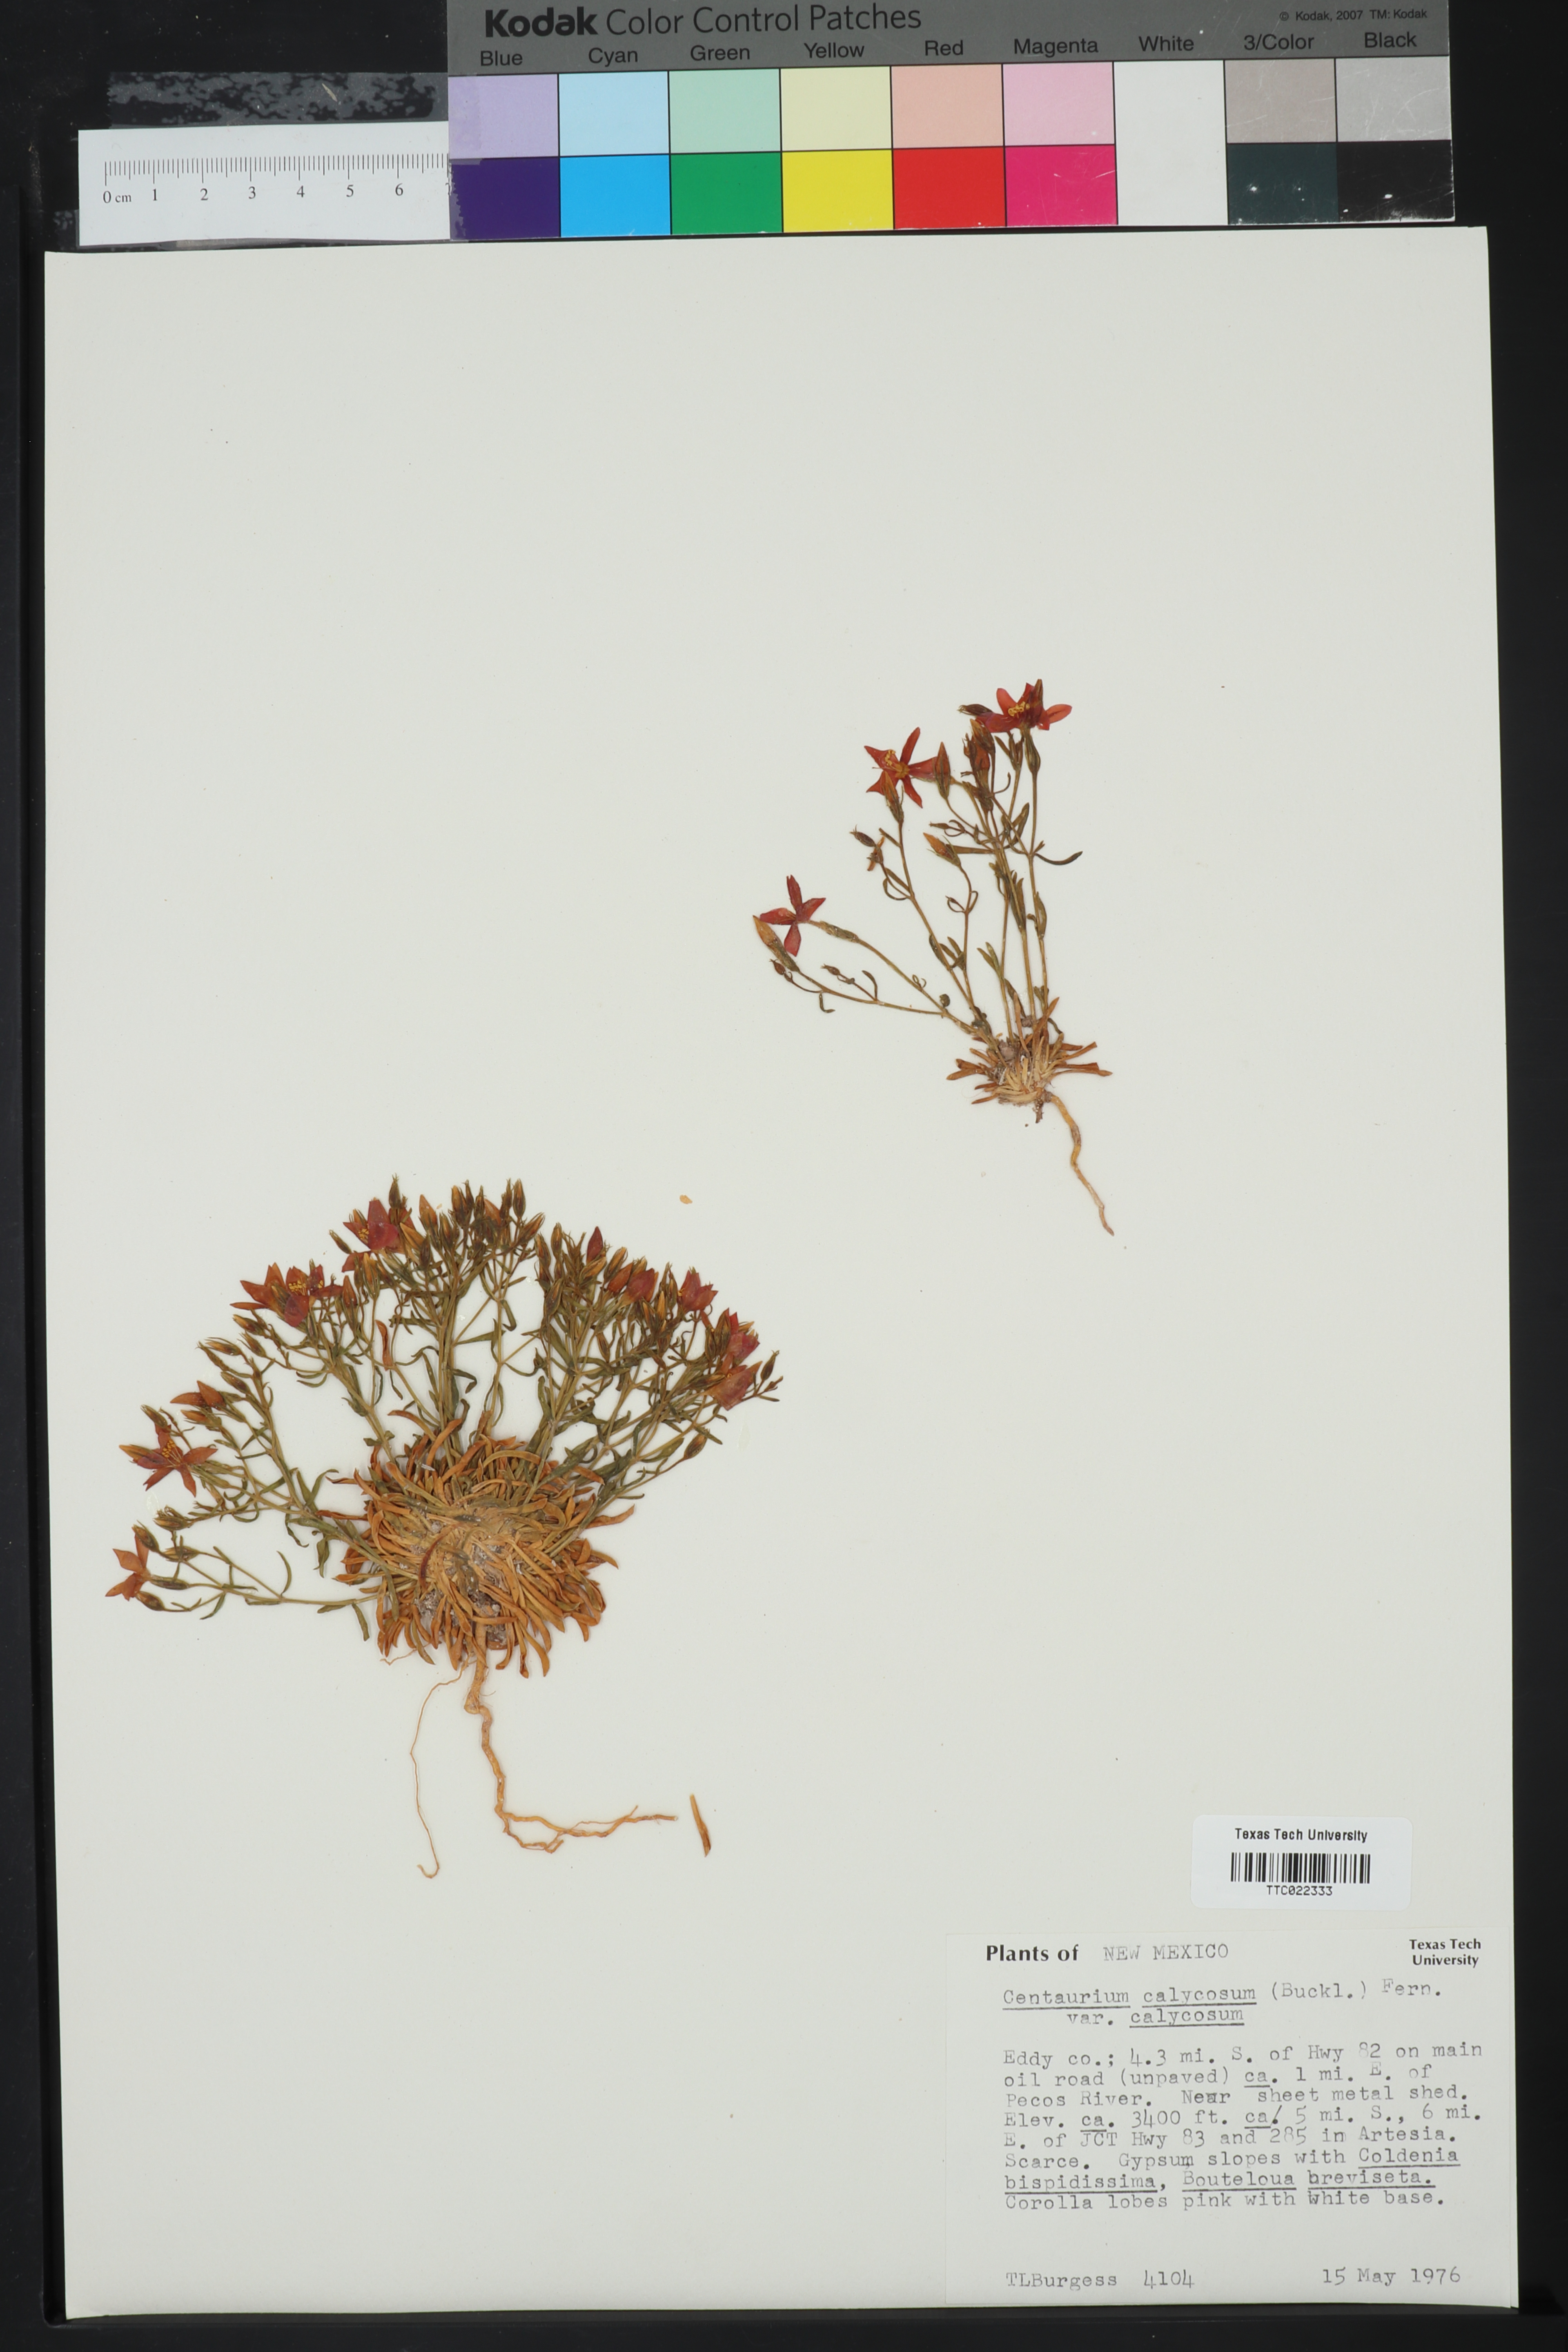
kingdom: Plantae
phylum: Tracheophyta
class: Magnoliopsida
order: Gentianales
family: Gentianaceae
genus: Zeltnera
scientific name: Zeltnera calycosa
